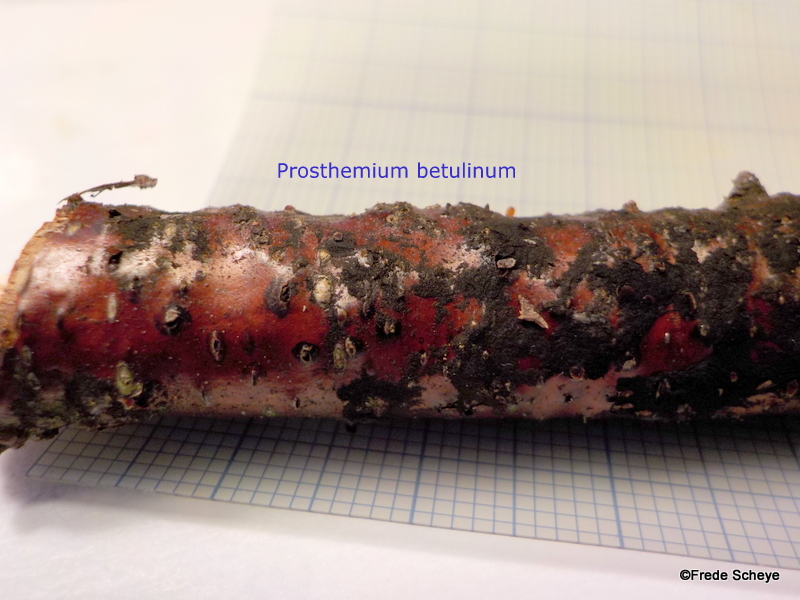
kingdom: Fungi
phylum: Ascomycota
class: Dothideomycetes
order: Pleosporales
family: Pleomassariaceae
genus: Pleomassaria
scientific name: Pleomassaria siparia
